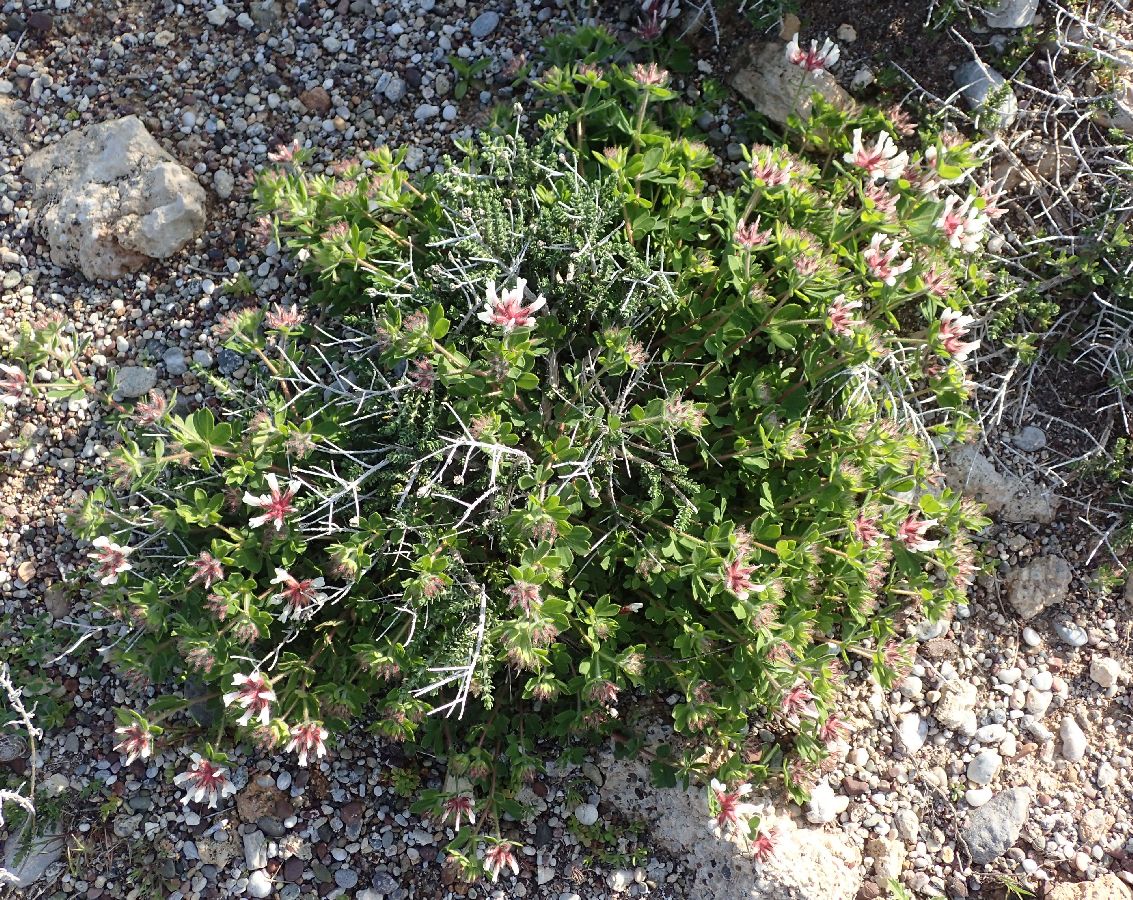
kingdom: Plantae
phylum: Tracheophyta
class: Magnoliopsida
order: Fabales
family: Fabaceae
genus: Lotus
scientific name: Lotus hirsutus
